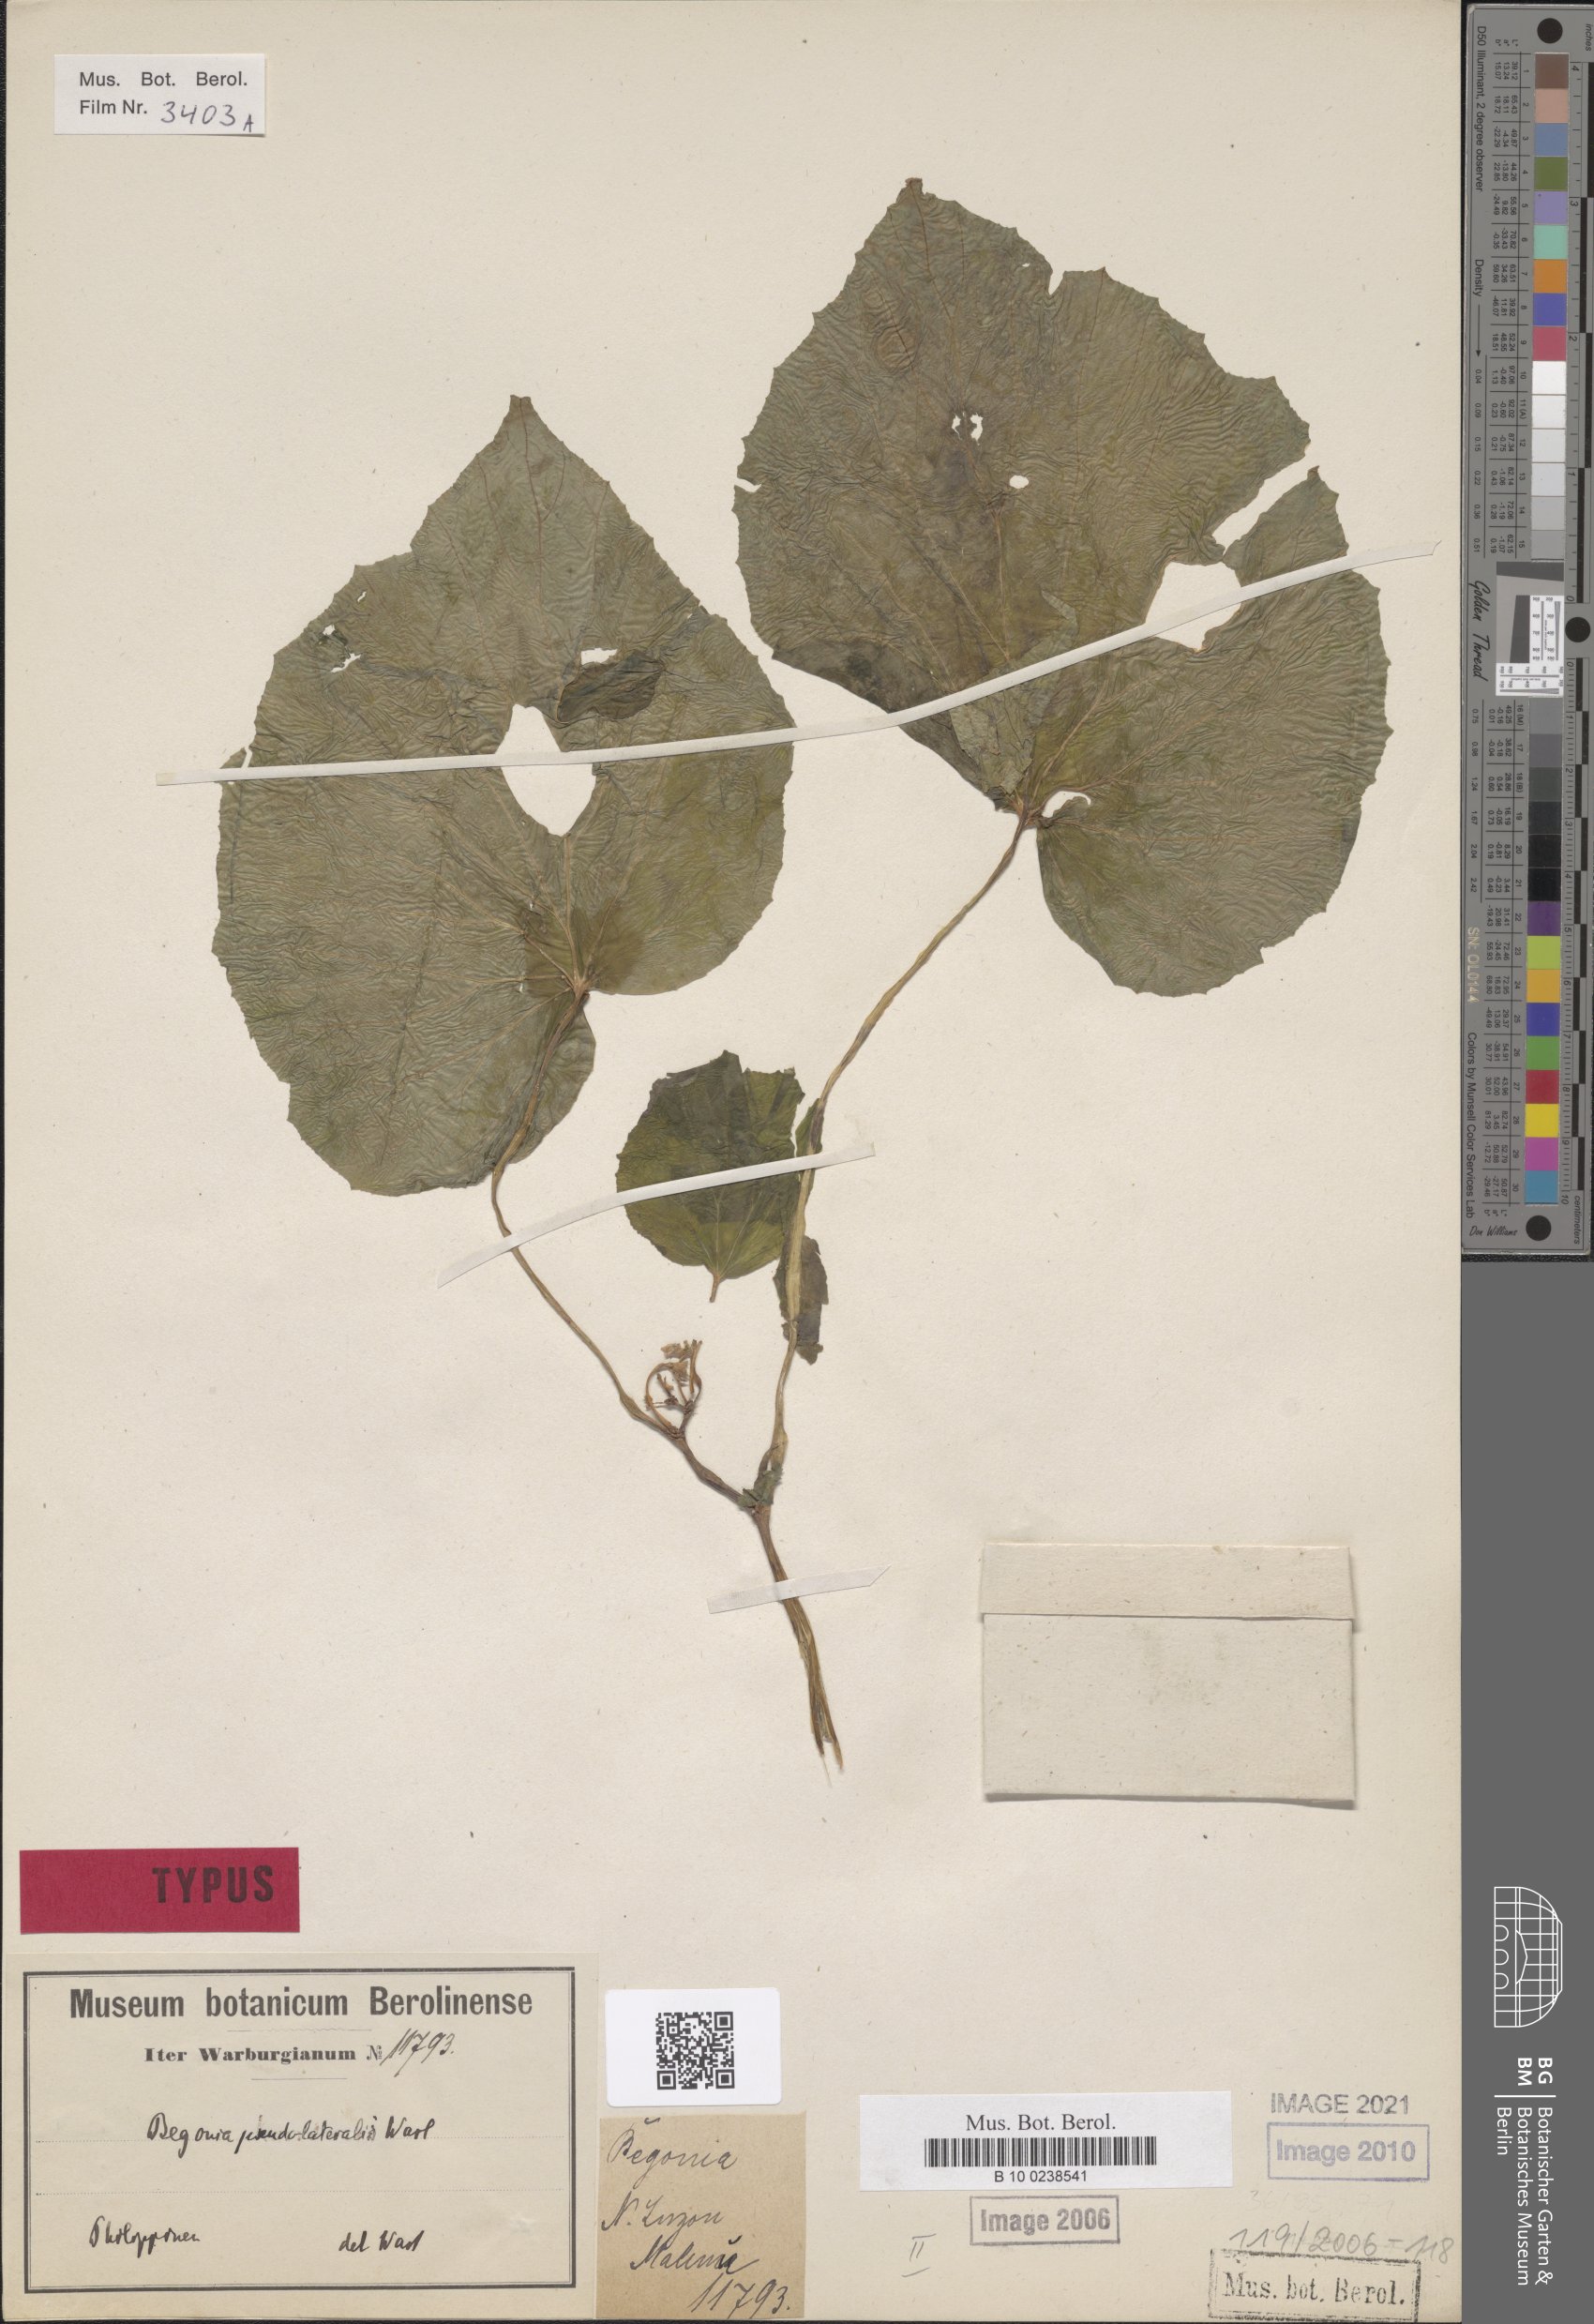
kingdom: Plantae
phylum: Tracheophyta
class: Magnoliopsida
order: Cucurbitales
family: Begoniaceae
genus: Begonia
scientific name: Begonia pseudolateralis
